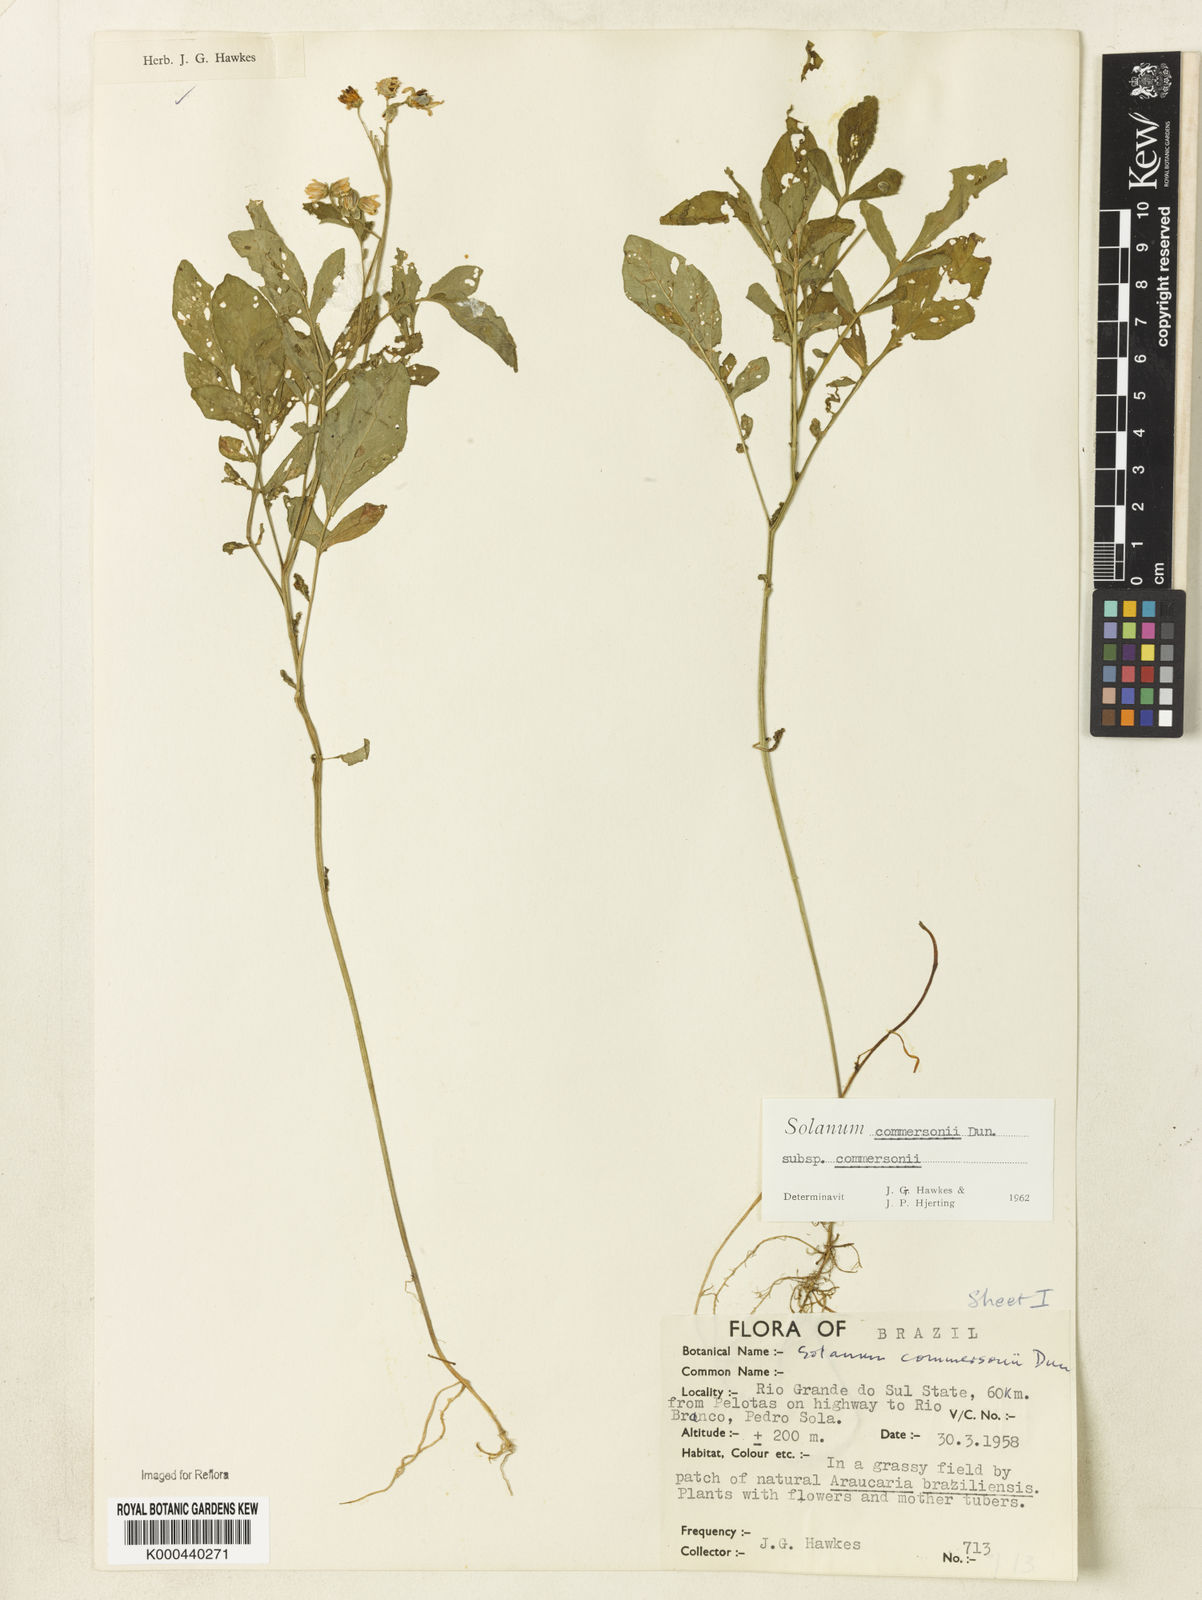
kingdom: Plantae
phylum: Tracheophyta
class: Magnoliopsida
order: Solanales
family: Solanaceae
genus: Solanum
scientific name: Solanum commersonii
